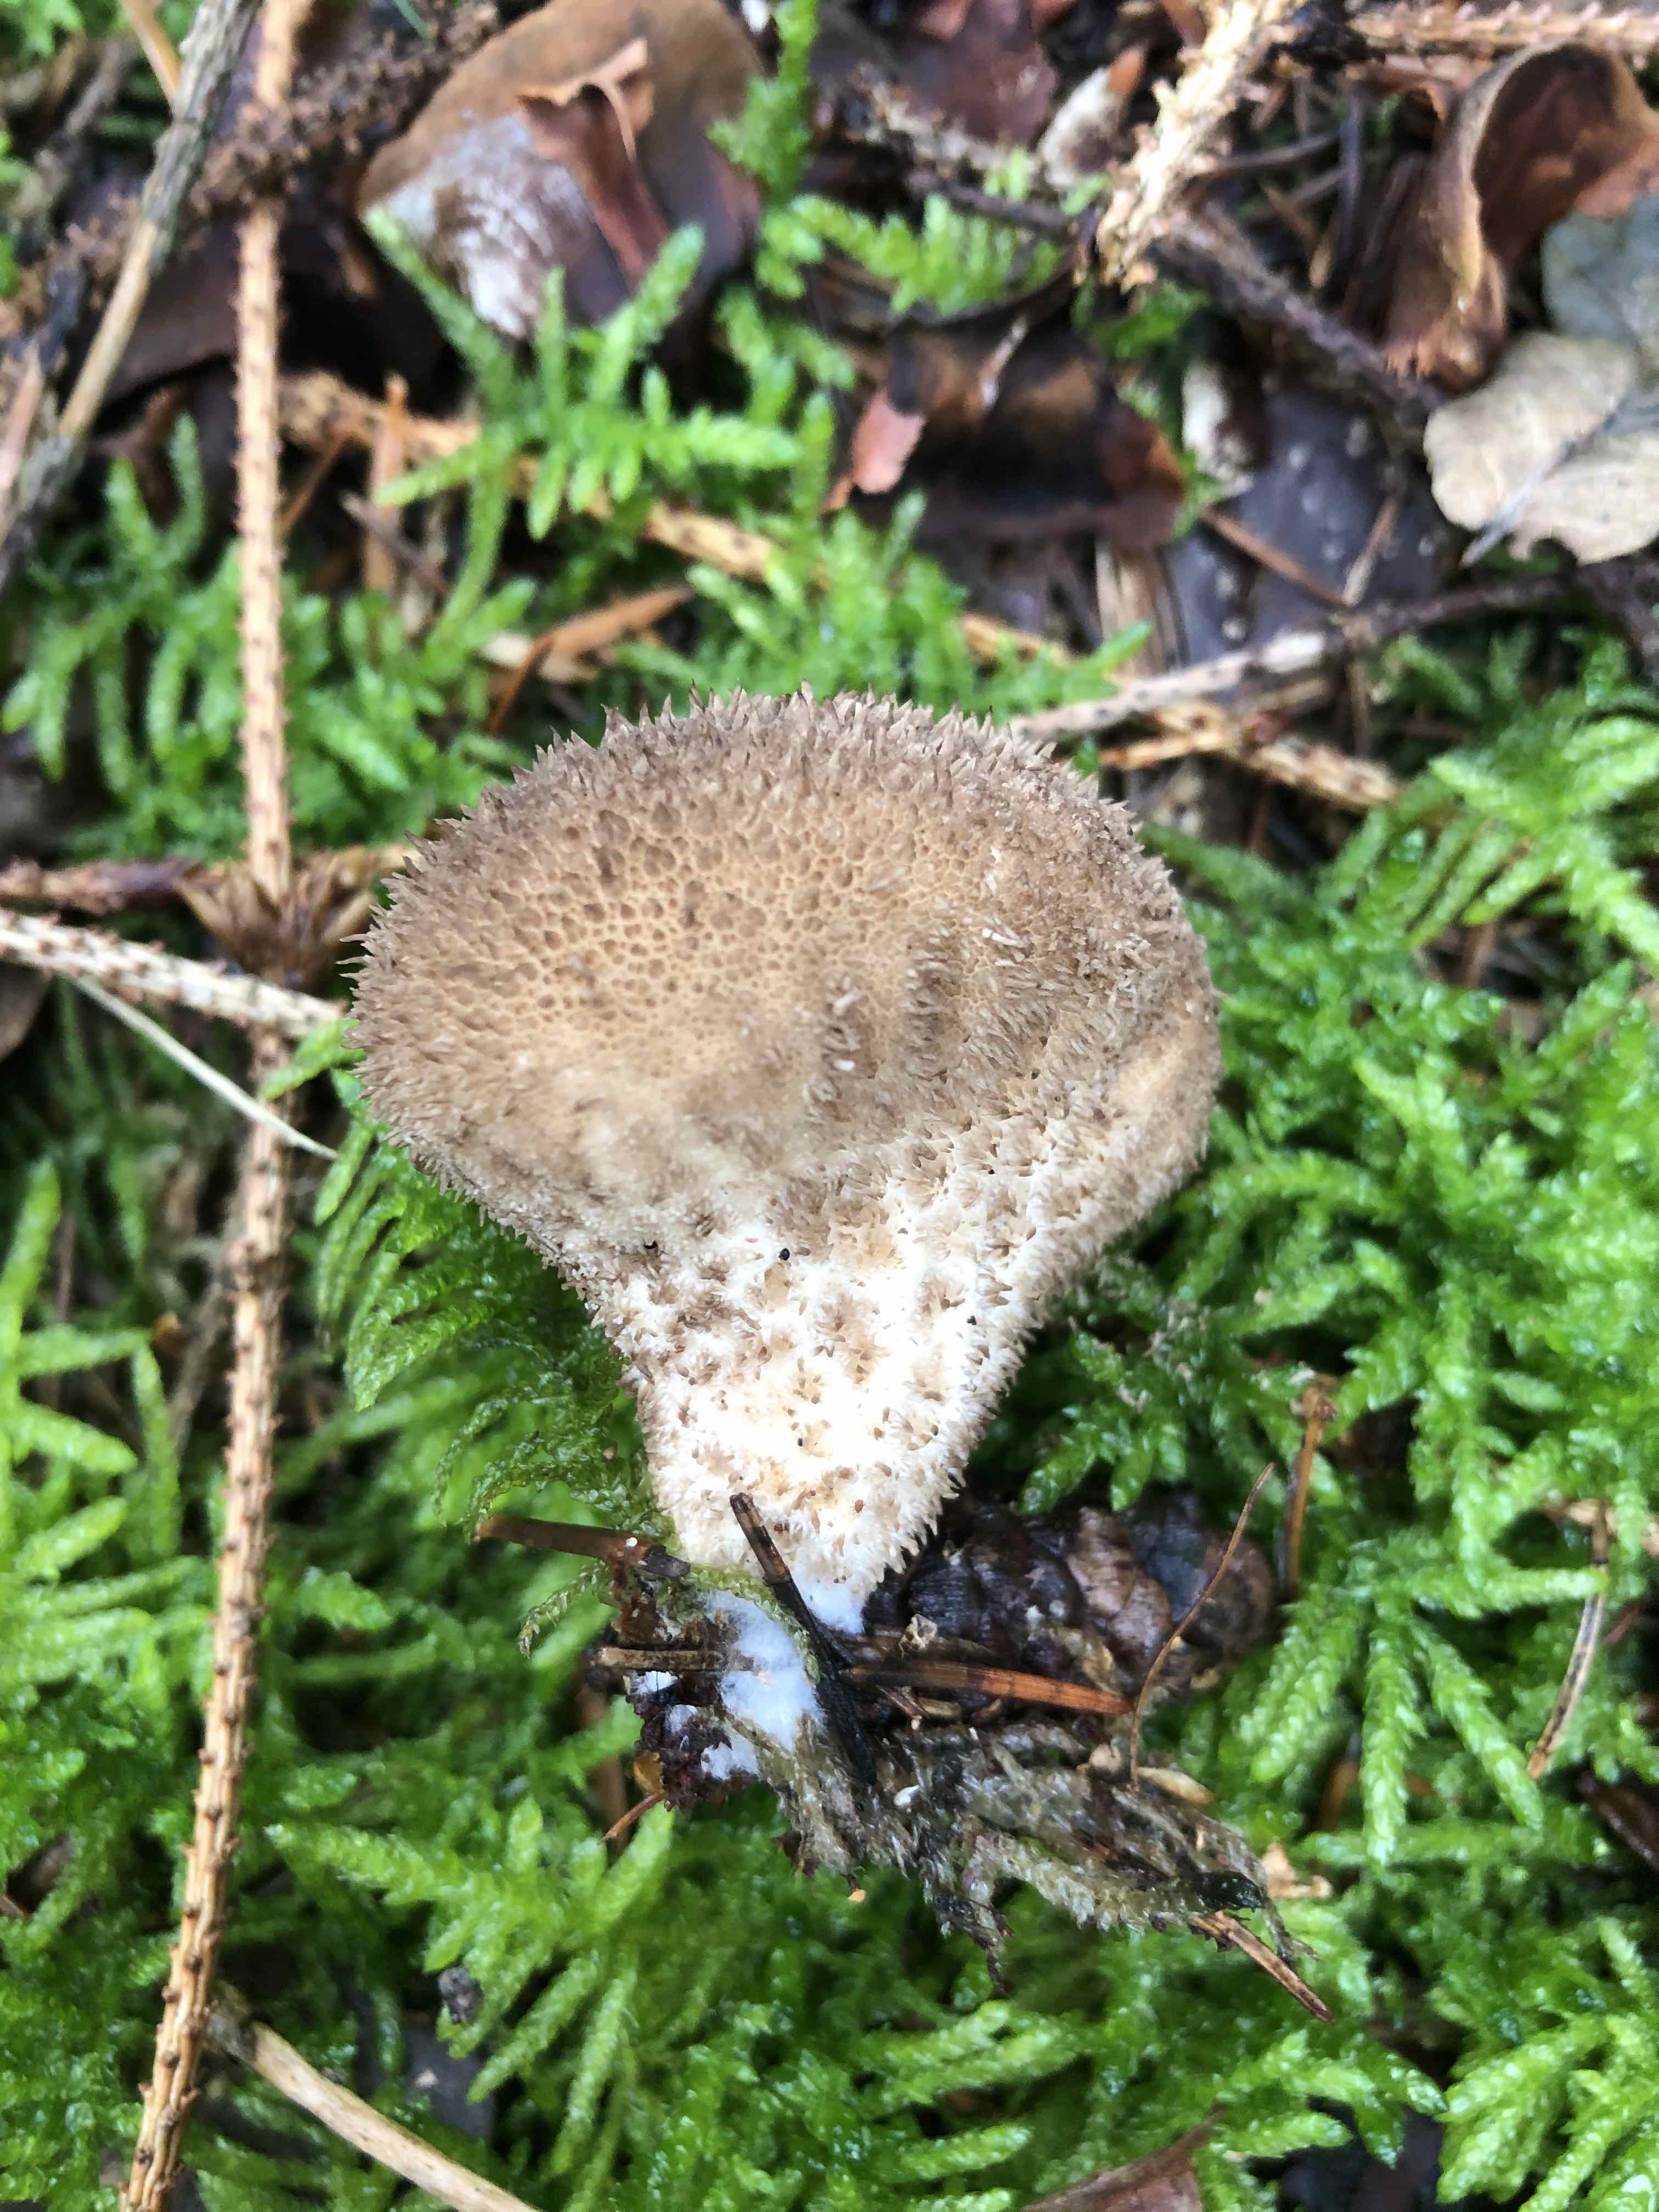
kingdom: Fungi
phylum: Basidiomycota
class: Agaricomycetes
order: Agaricales
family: Lycoperdaceae
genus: Lycoperdon
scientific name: Lycoperdon nigrescens
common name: sortagtig støvbold
